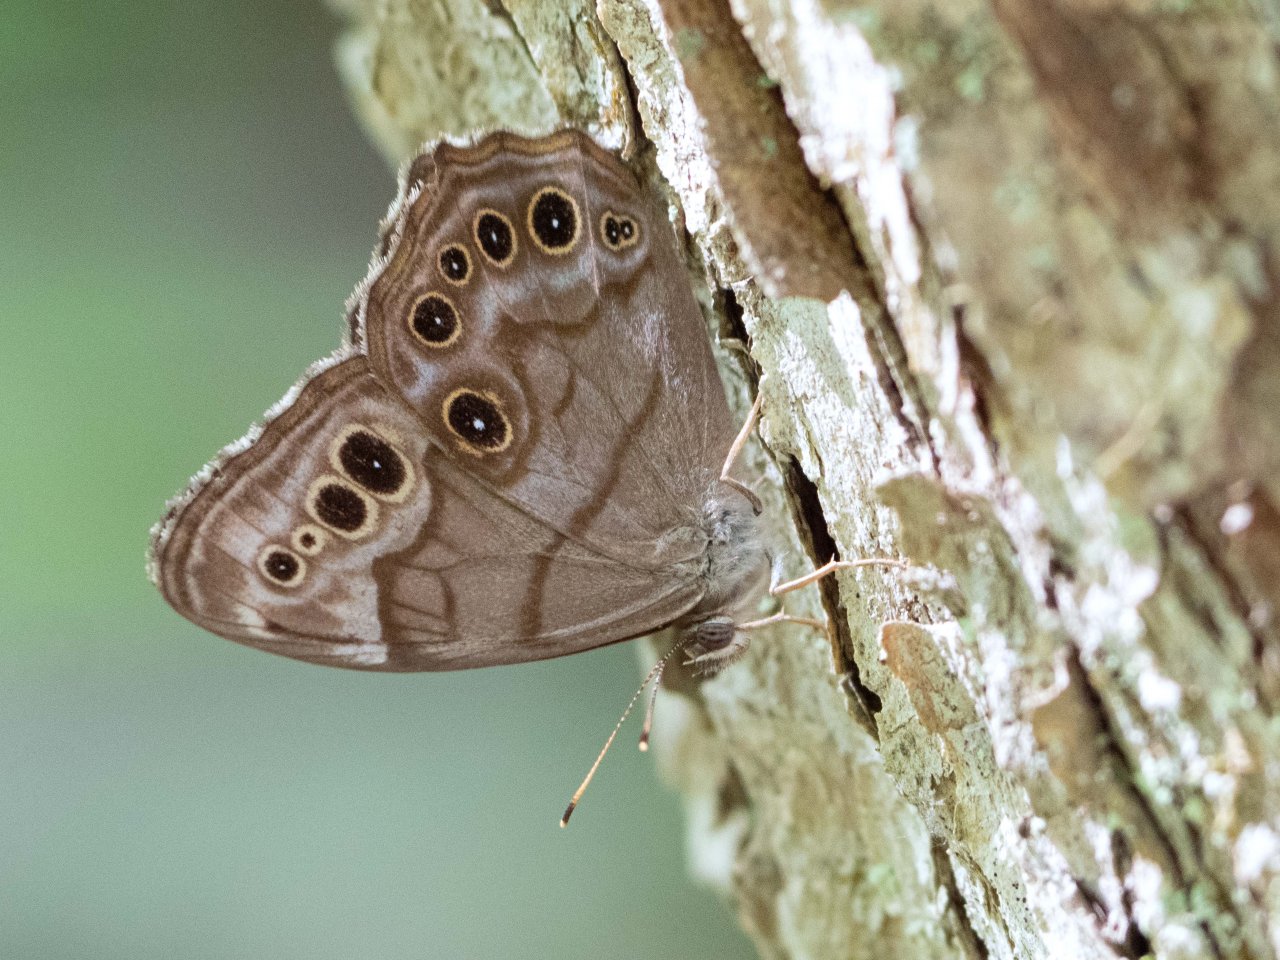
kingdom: Animalia
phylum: Arthropoda
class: Insecta
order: Lepidoptera
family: Nymphalidae
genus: Lethe
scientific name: Lethe anthedon
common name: Northern Pearly-Eye
